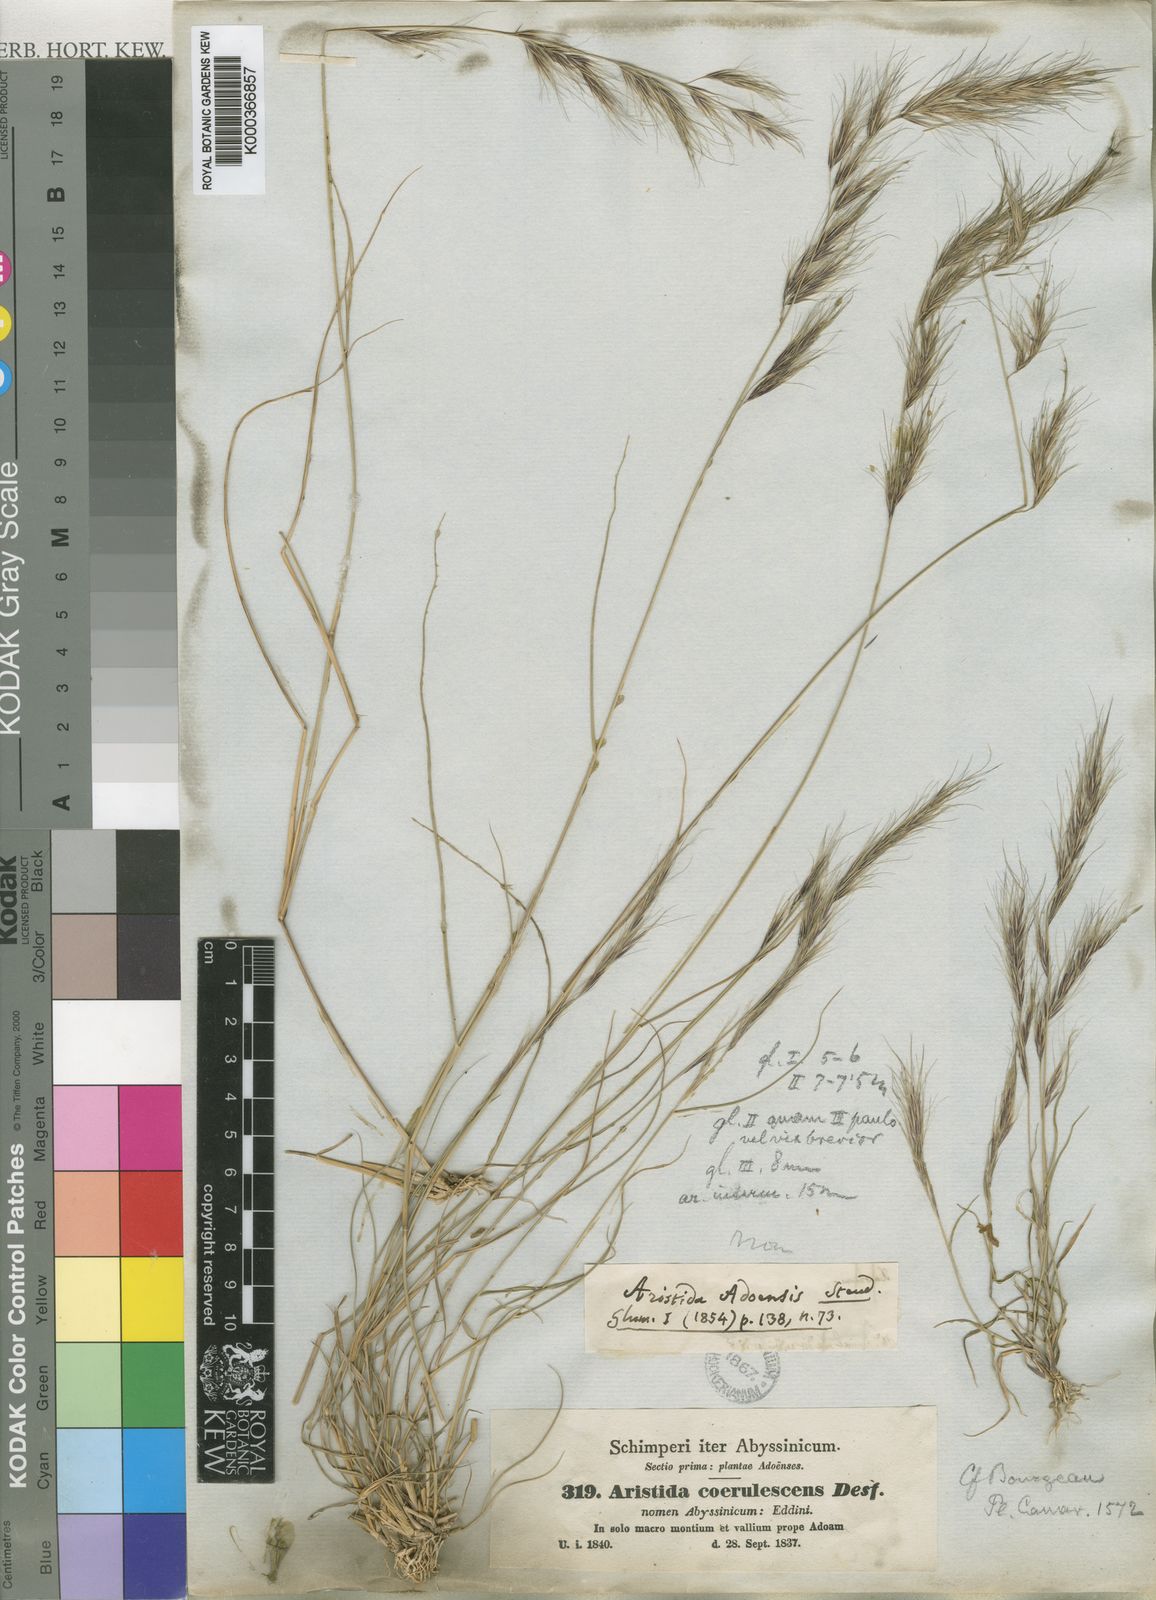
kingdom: Plantae
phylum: Tracheophyta
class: Liliopsida
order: Poales
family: Poaceae
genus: Aristida
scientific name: Aristida adscensionis
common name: Sixweeks threeawn
